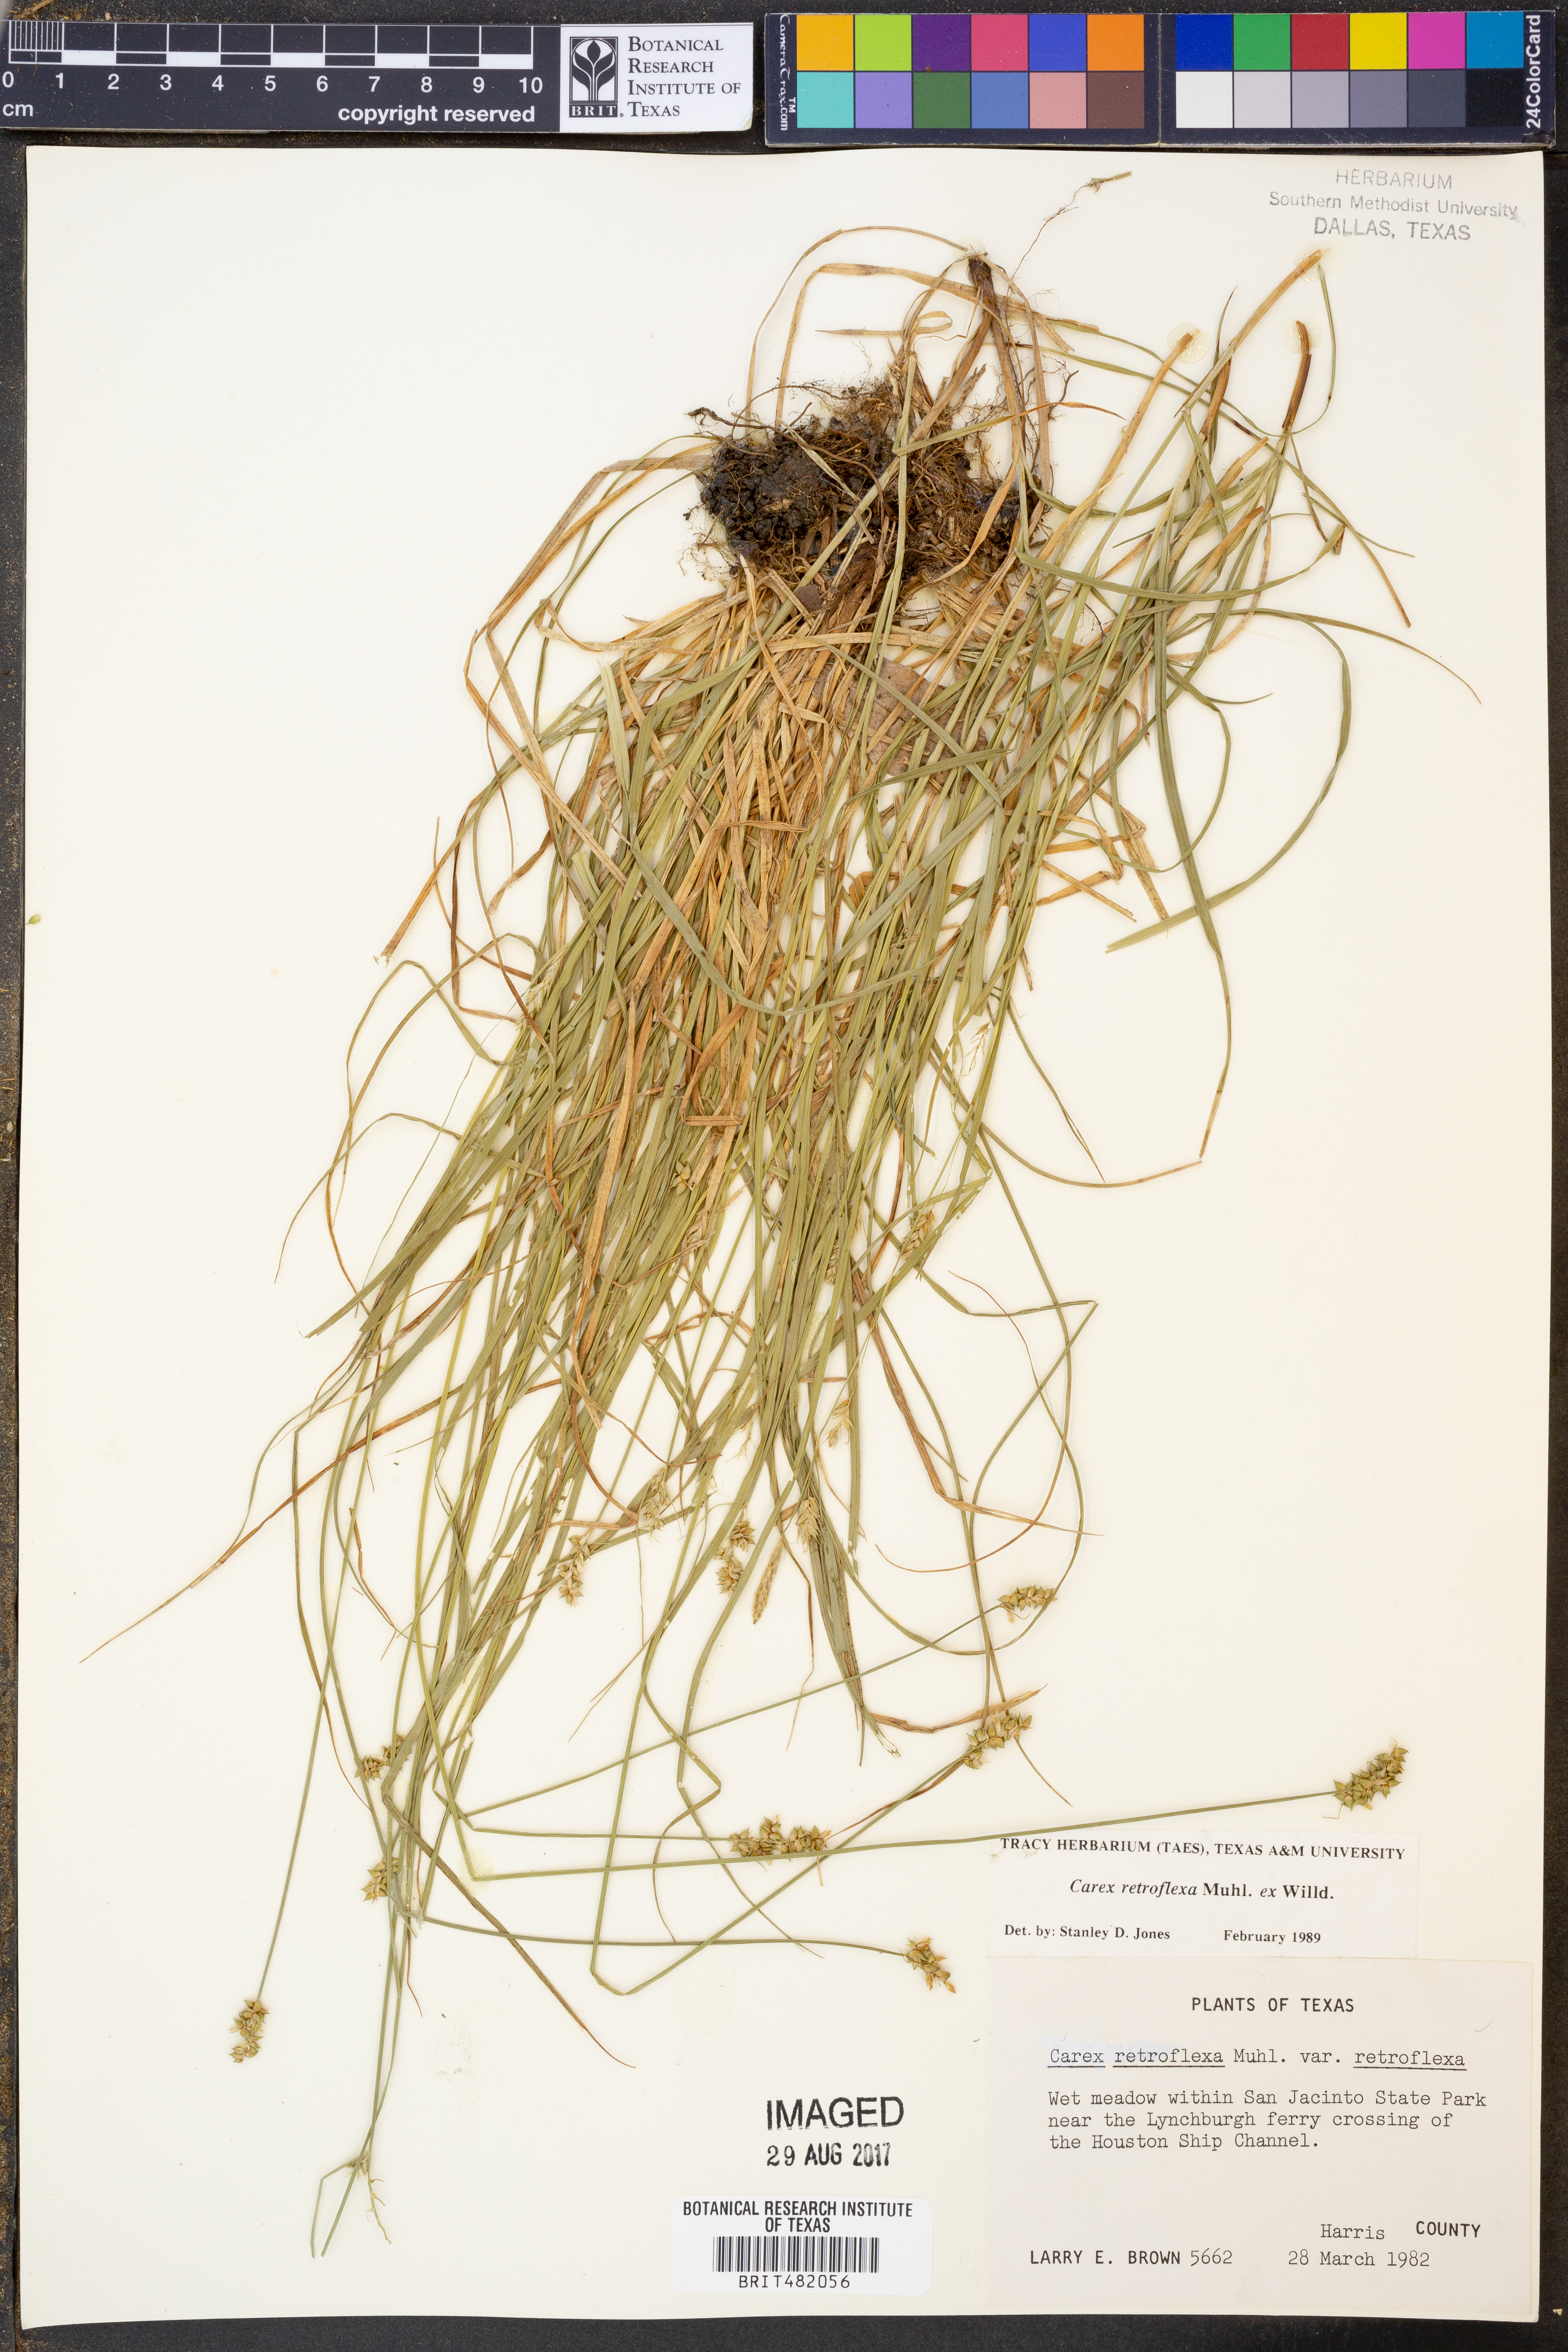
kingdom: Plantae
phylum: Tracheophyta
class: Liliopsida
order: Poales
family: Cyperaceae
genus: Carex
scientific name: Carex retroflexa
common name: Reflexed sedge
